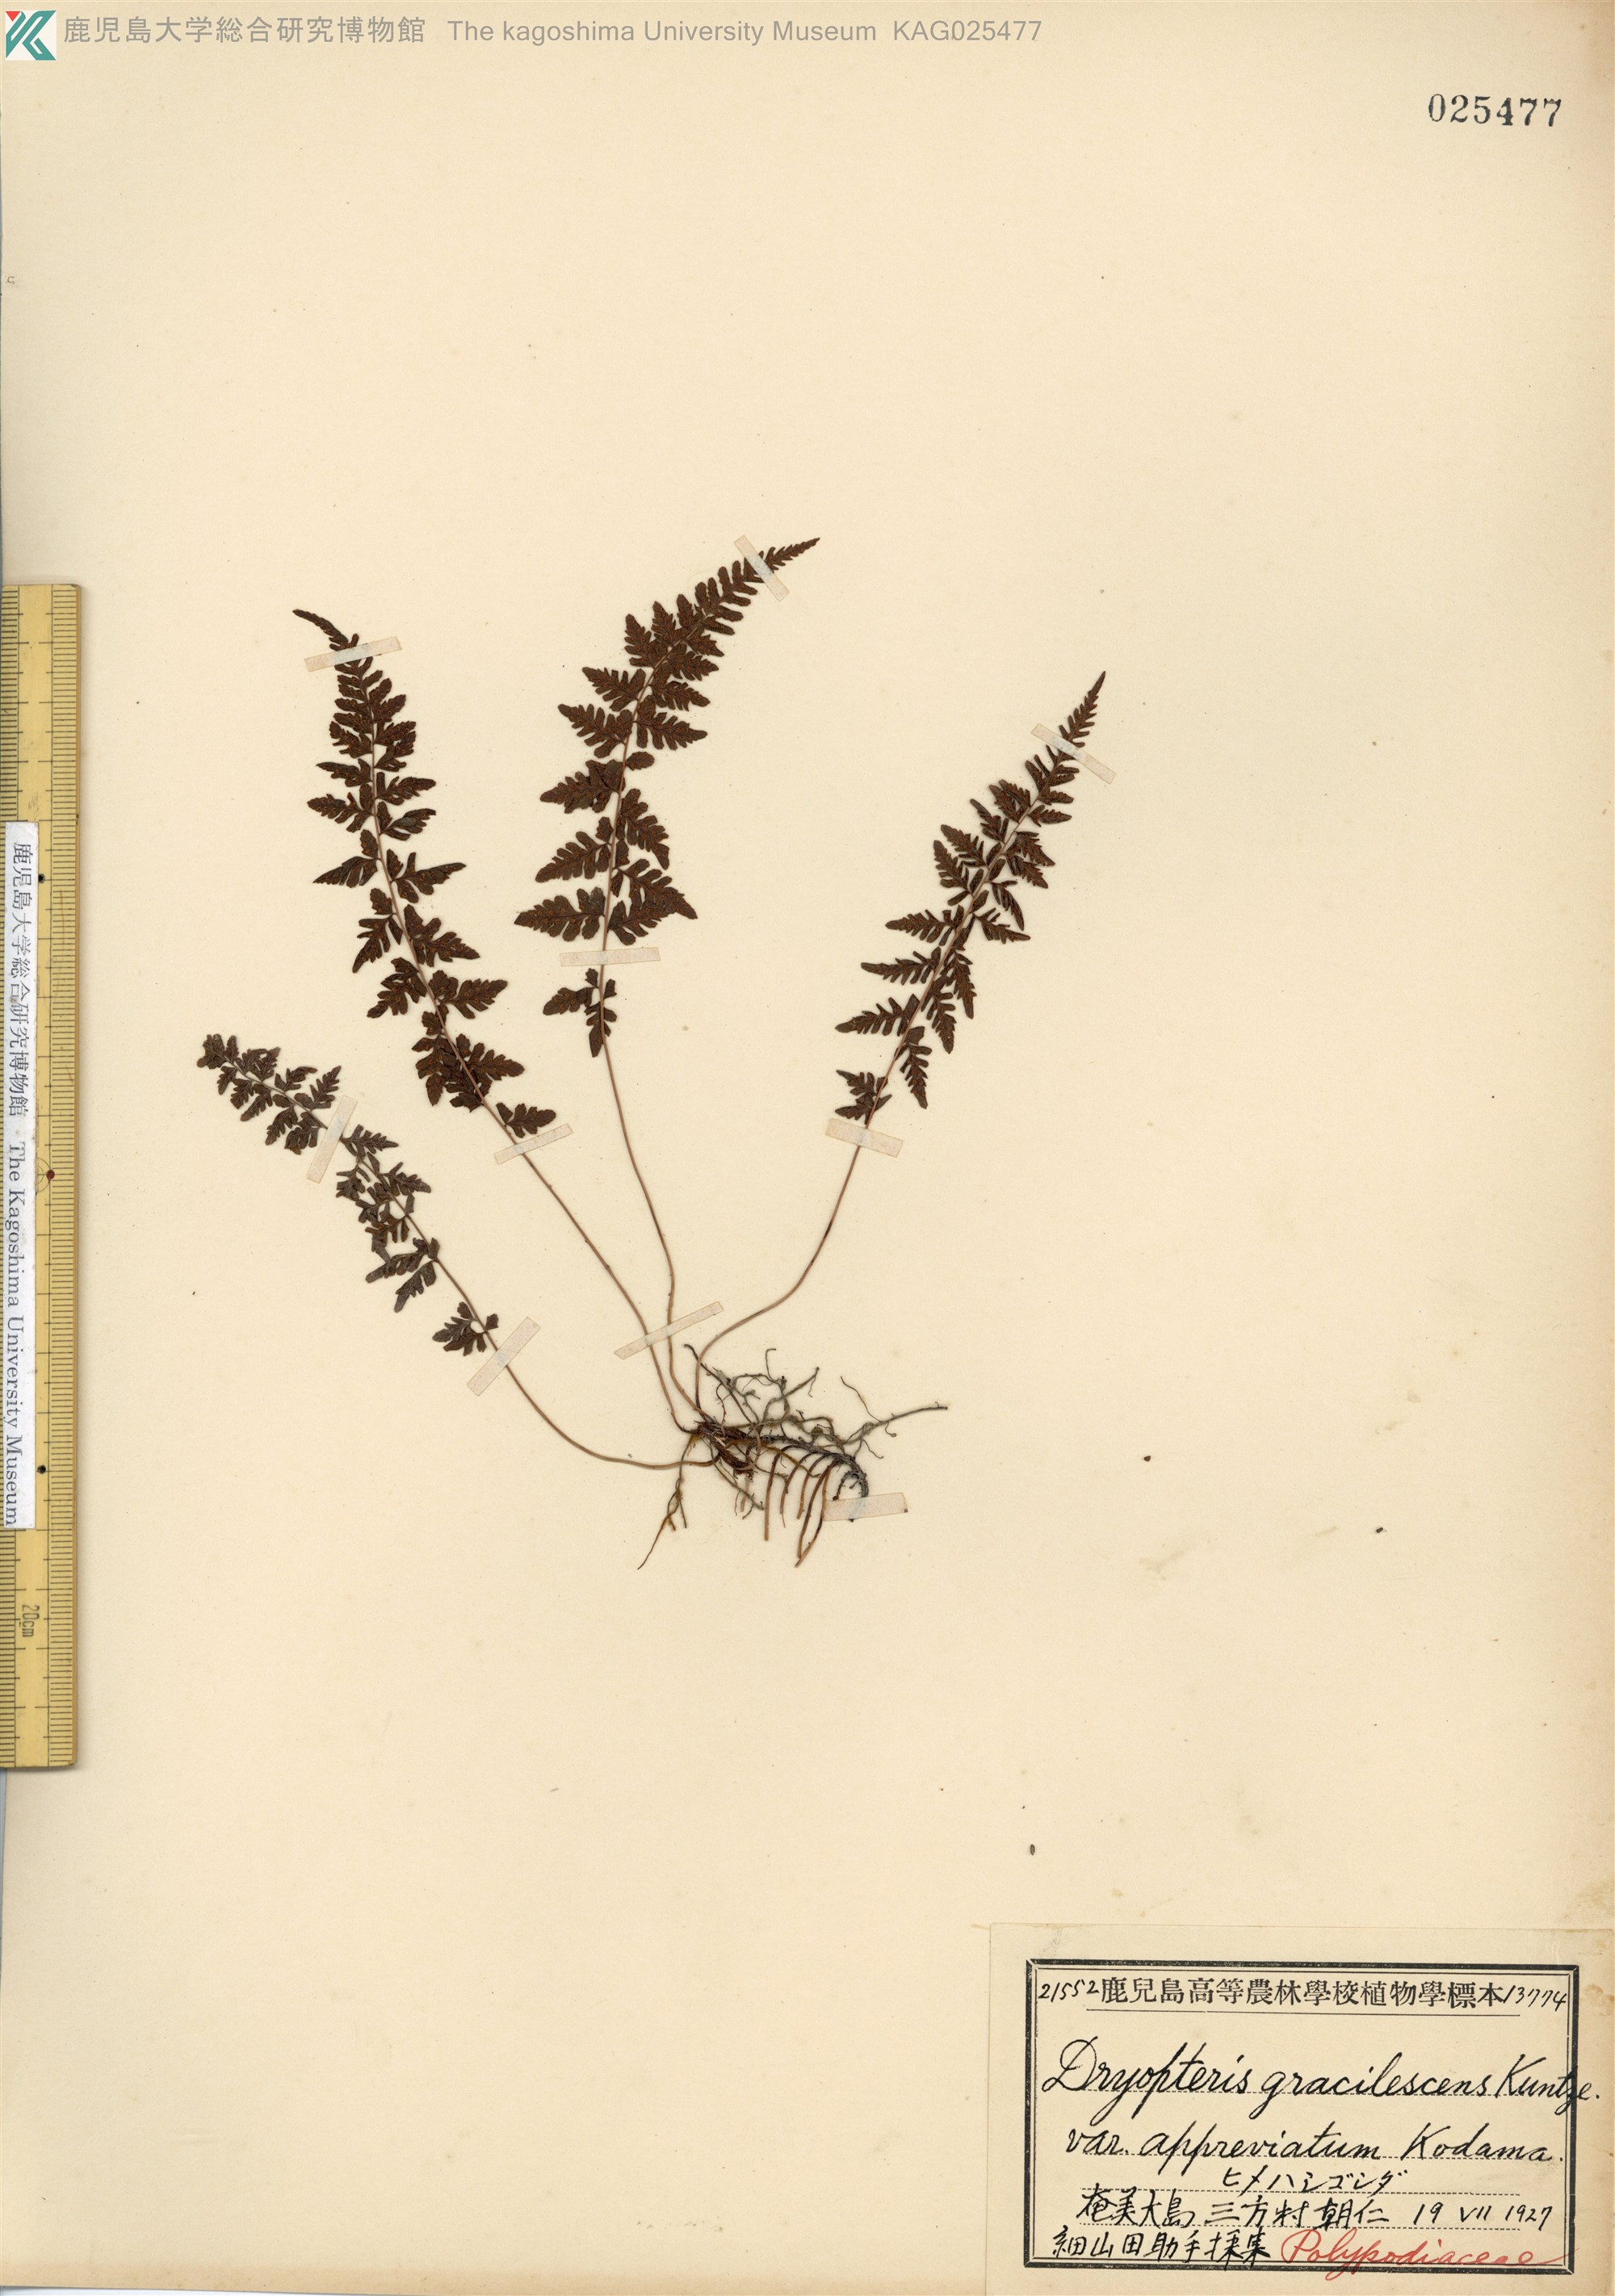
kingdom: Plantae
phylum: Tracheophyta
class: Polypodiopsida
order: Polypodiales
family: Thelypteridaceae
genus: Amauropelta
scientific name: Amauropelta cystopteroides
